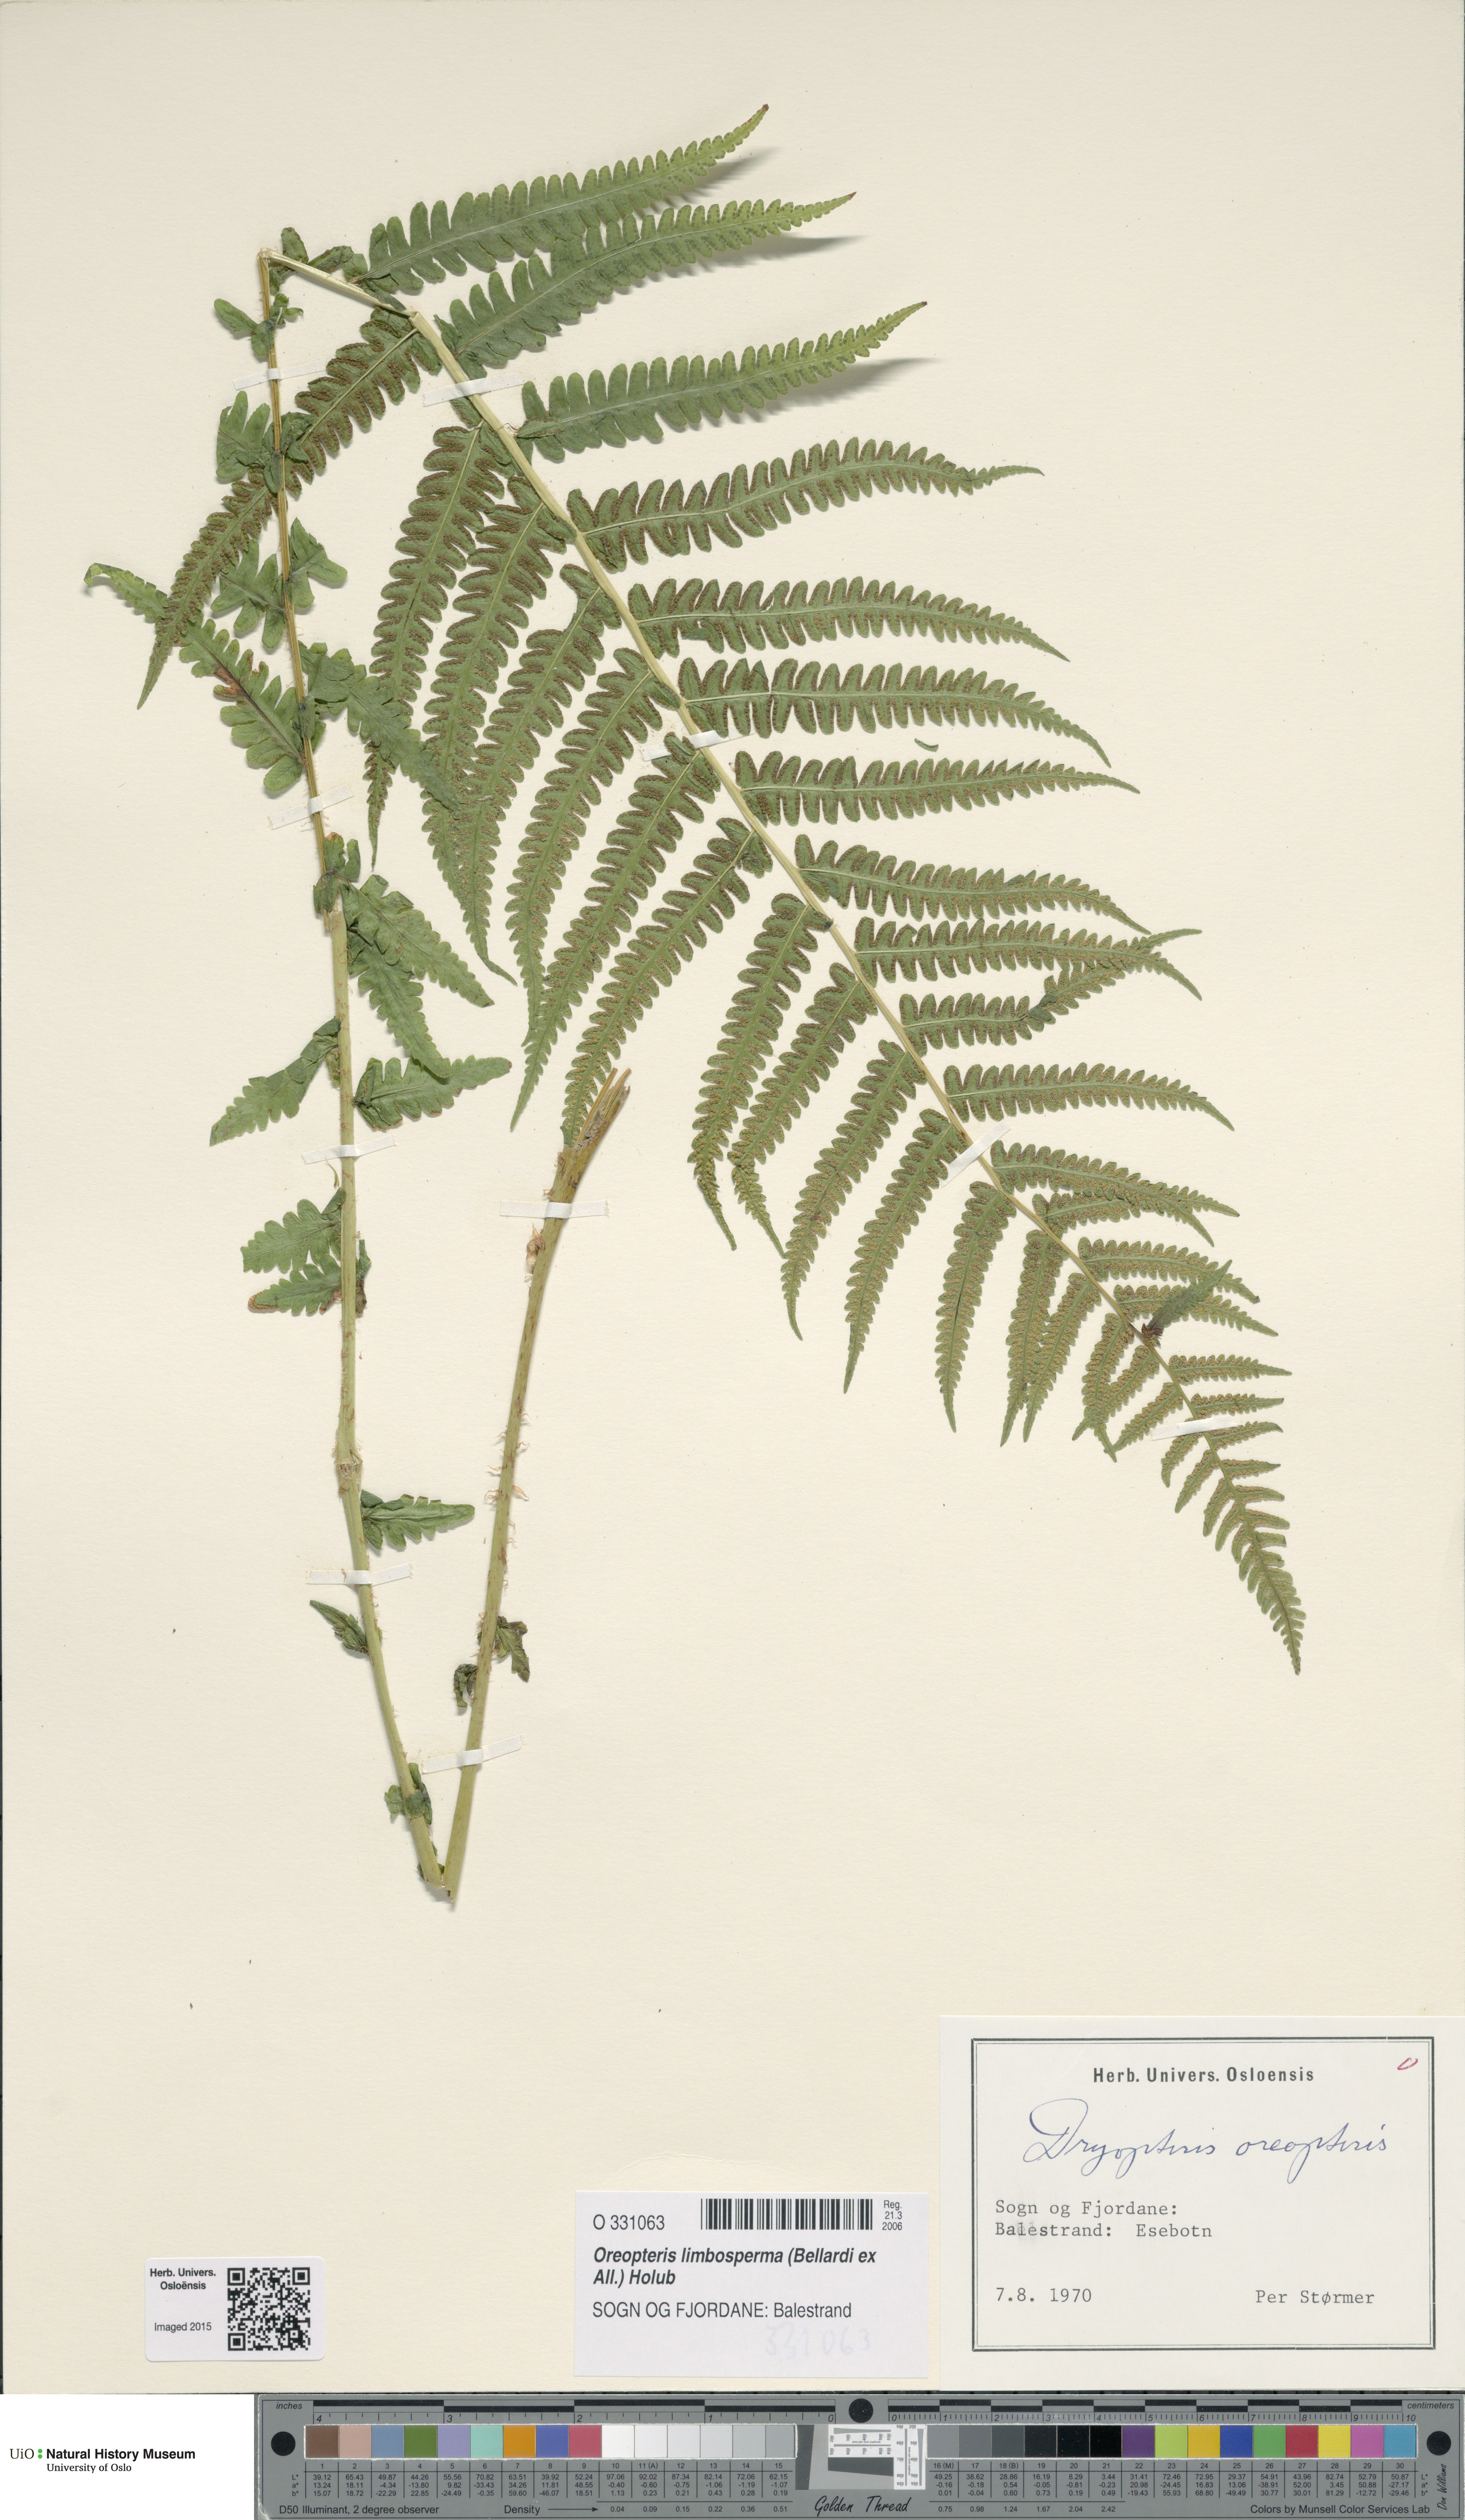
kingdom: Plantae
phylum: Tracheophyta
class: Polypodiopsida
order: Polypodiales
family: Thelypteridaceae
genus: Oreopteris
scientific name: Oreopteris limbosperma
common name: Lemon-scented fern
